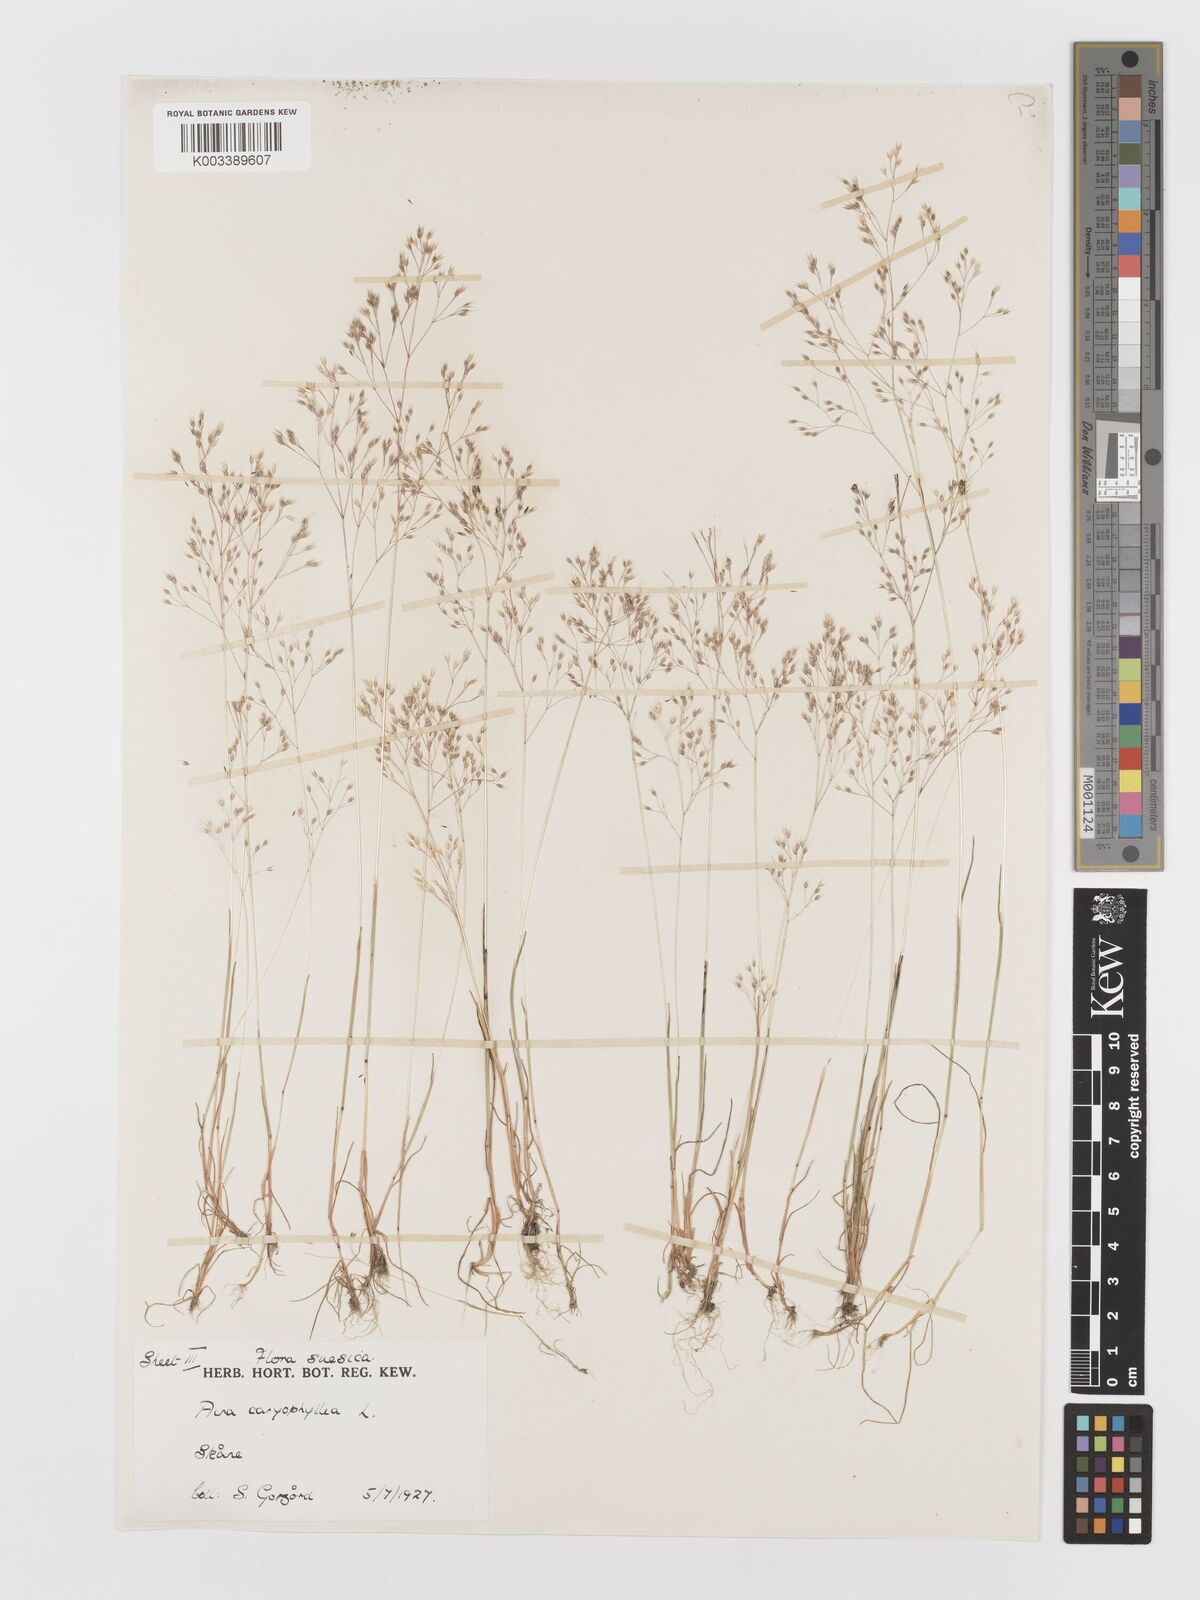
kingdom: Plantae
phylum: Tracheophyta
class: Liliopsida
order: Poales
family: Poaceae
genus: Aira
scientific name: Aira caryophyllea
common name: Silver hairgrass
